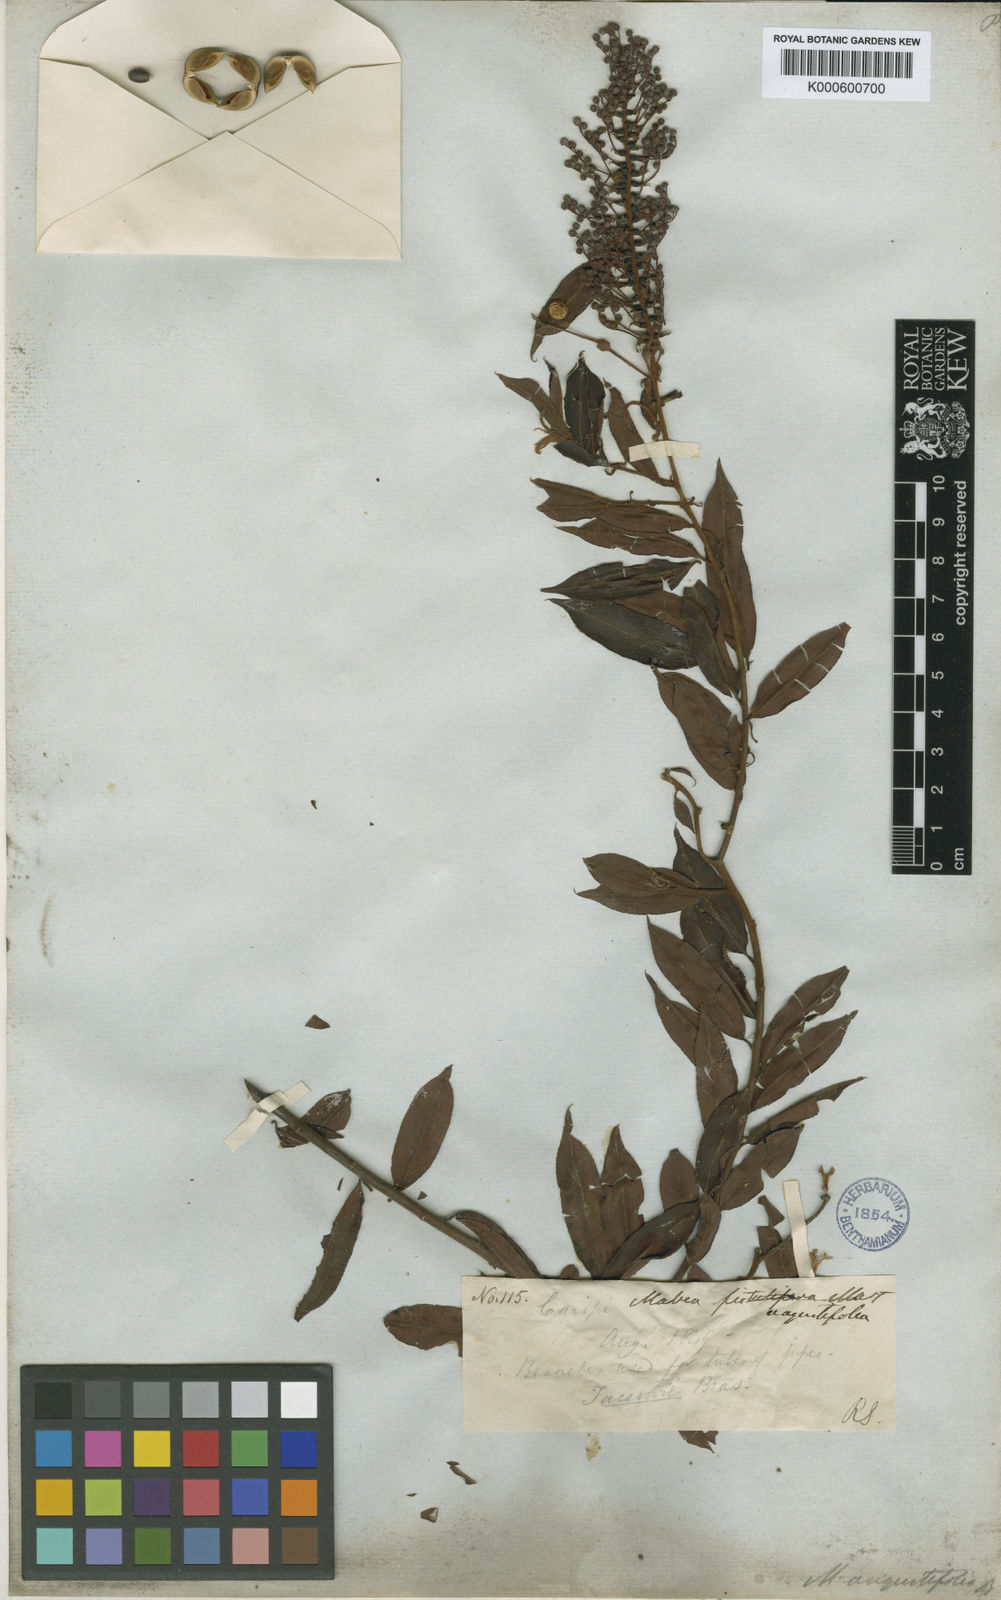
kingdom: Plantae
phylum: Tracheophyta
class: Magnoliopsida
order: Malpighiales
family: Euphorbiaceae
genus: Mabea
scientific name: Mabea angustifolia
